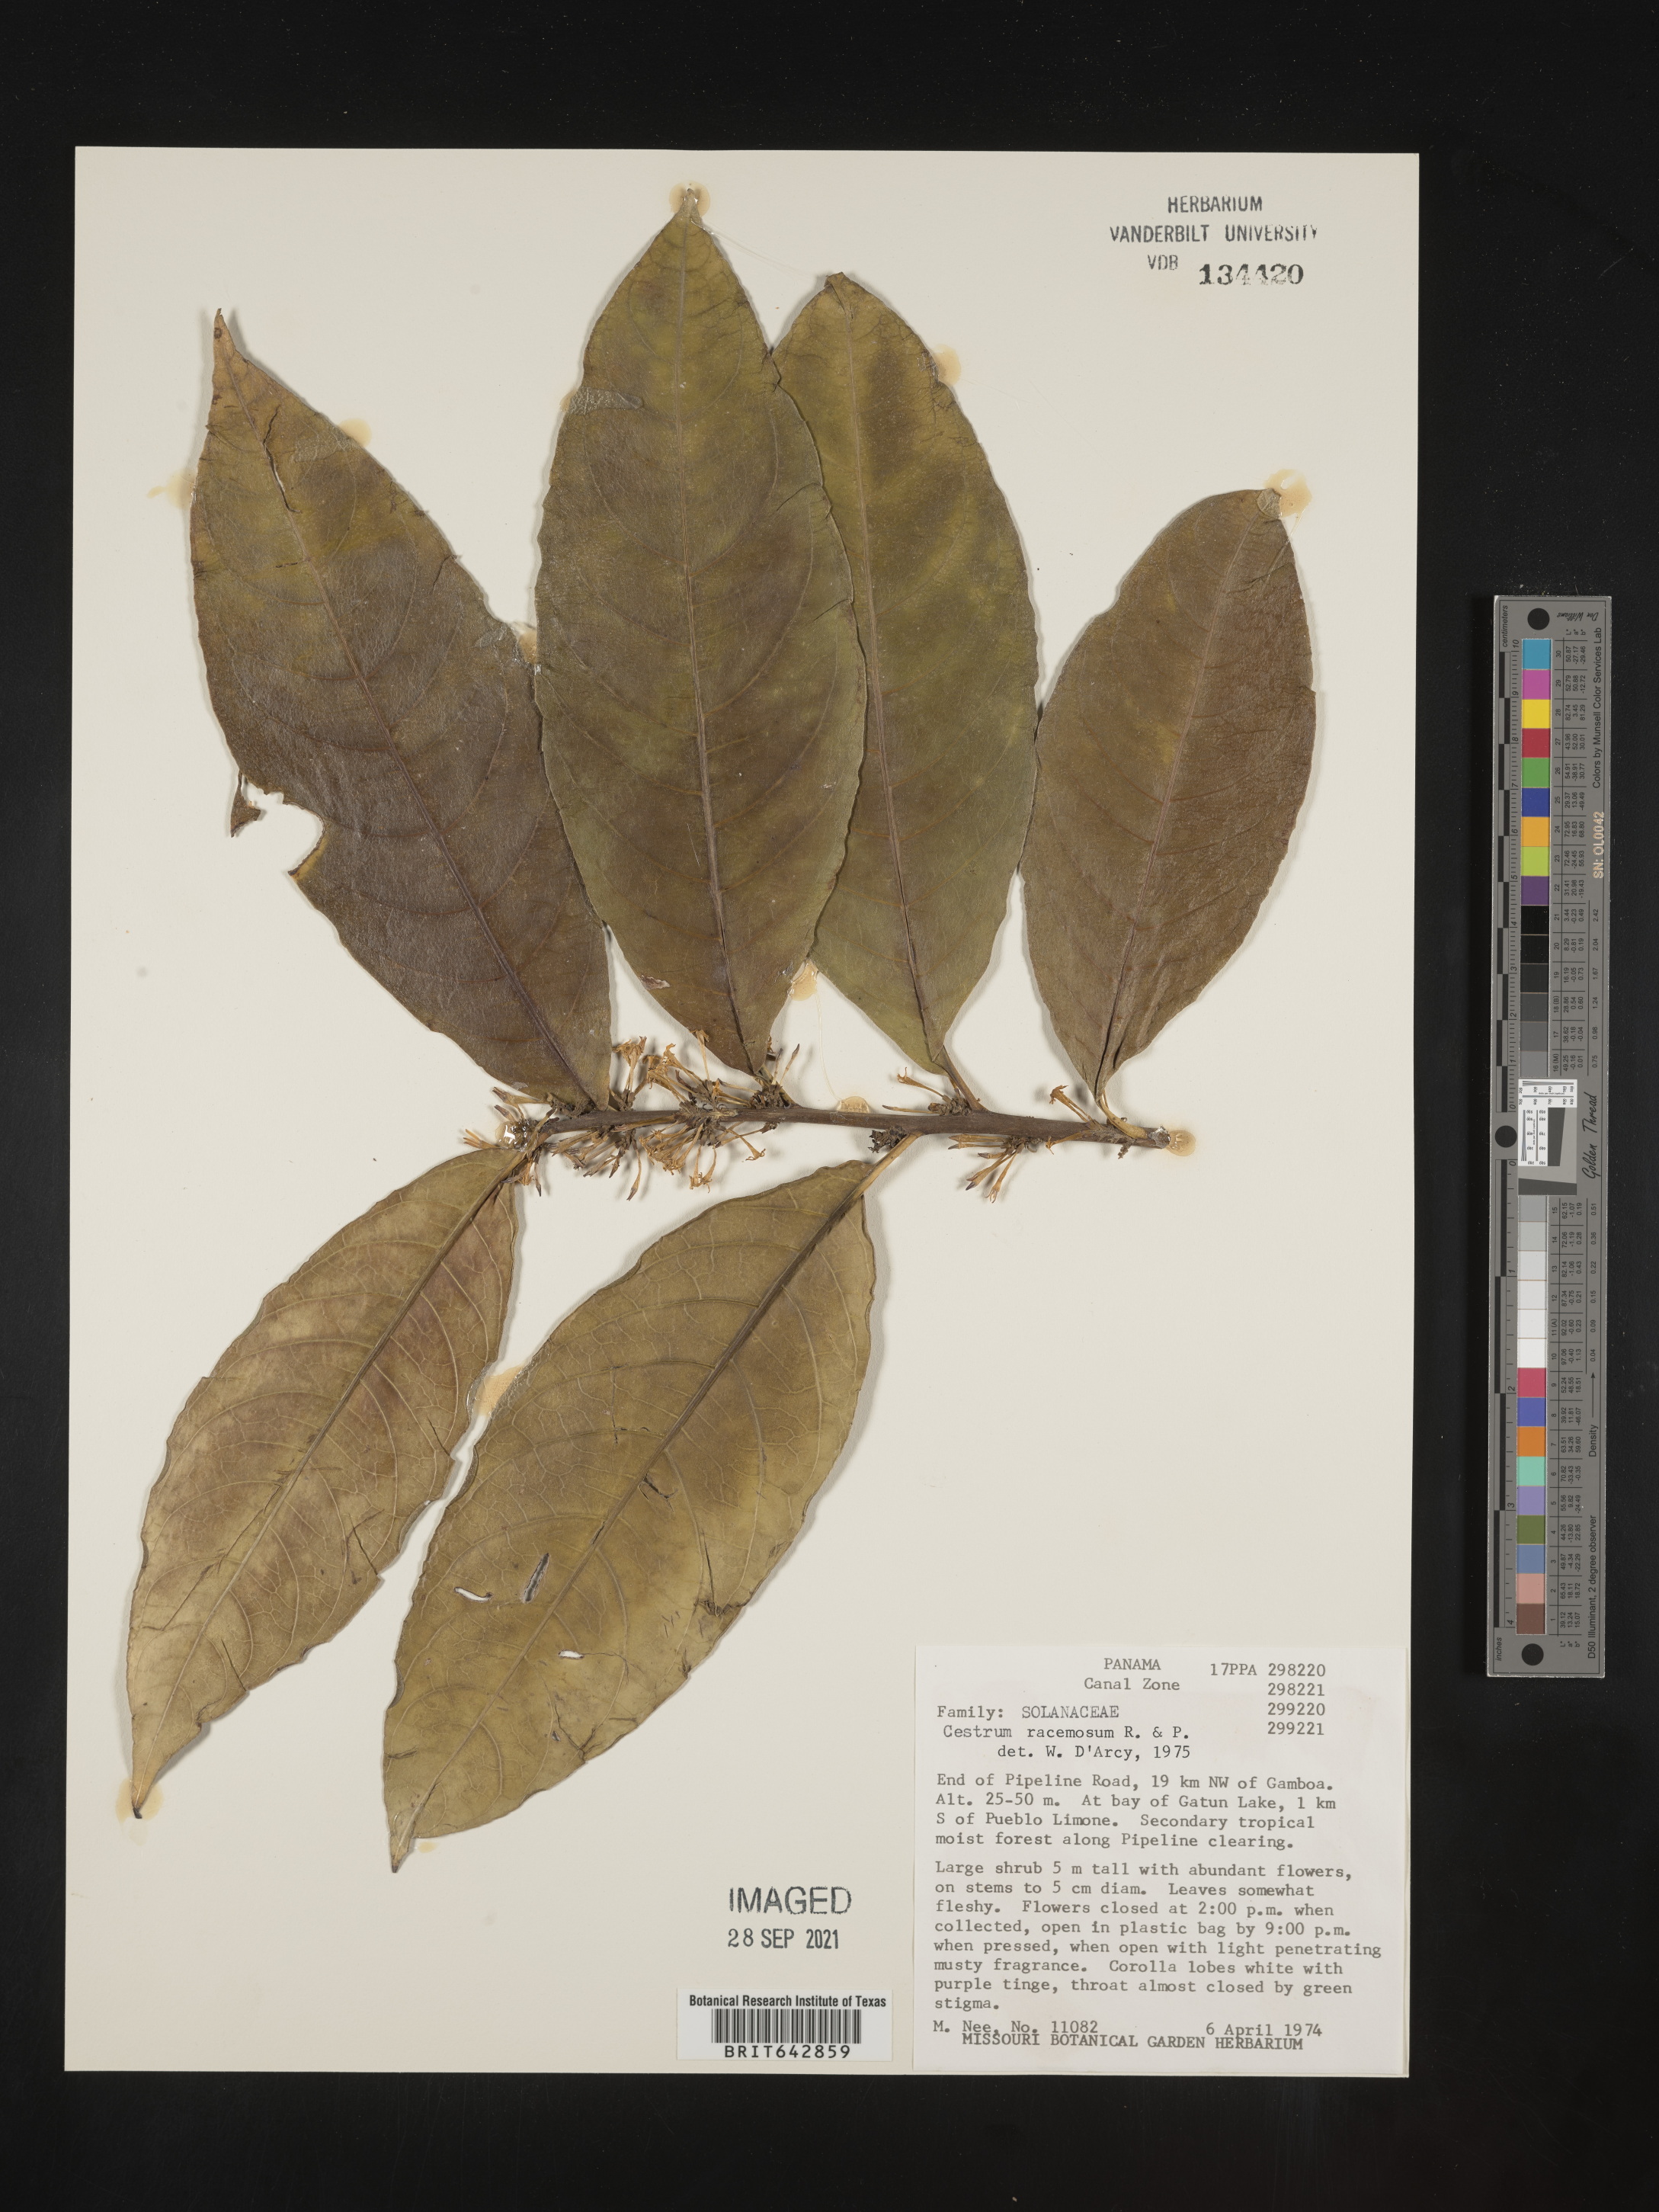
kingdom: Plantae
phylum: Tracheophyta
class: Magnoliopsida
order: Solanales
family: Solanaceae
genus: Cestrum
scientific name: Cestrum
